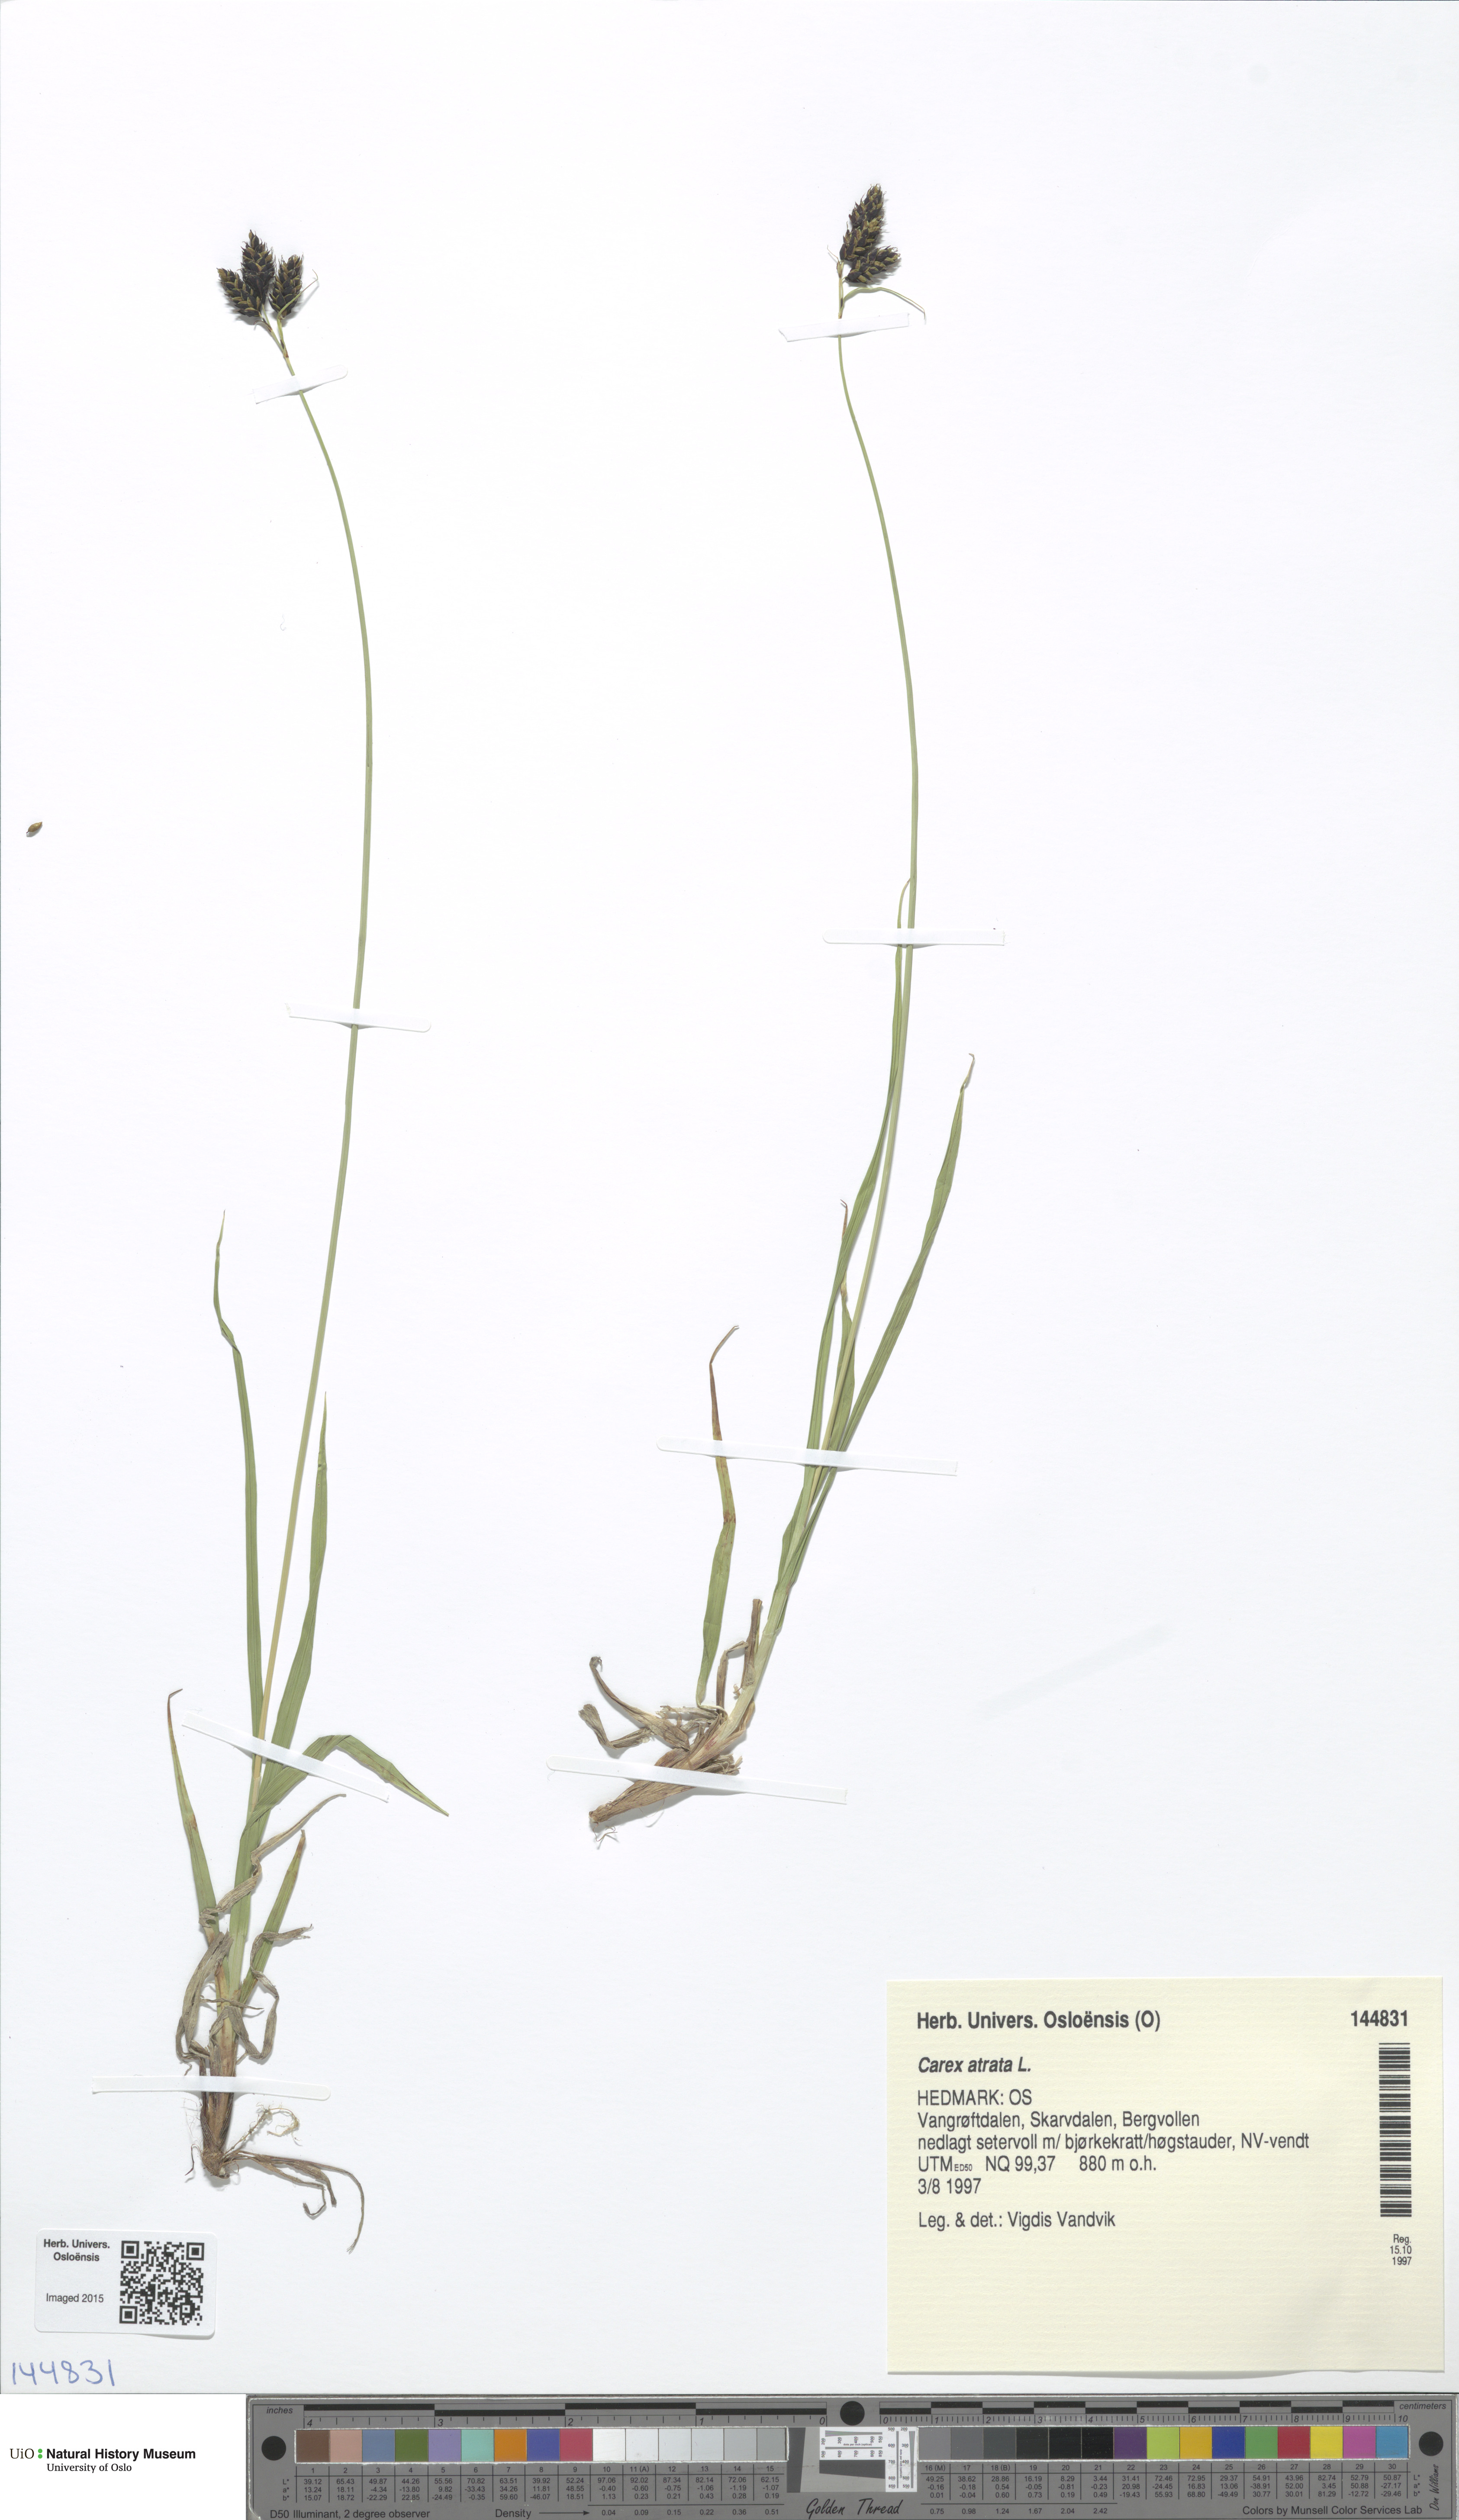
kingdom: Plantae
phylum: Tracheophyta
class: Liliopsida
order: Poales
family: Cyperaceae
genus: Carex
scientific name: Carex atrata
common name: Black alpine sedge
